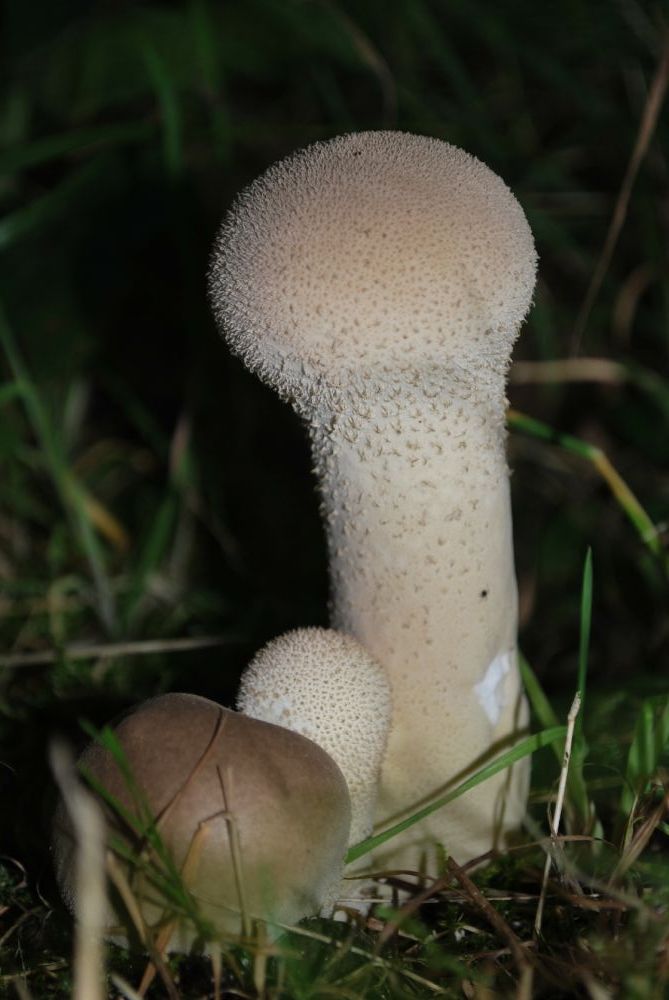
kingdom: Fungi
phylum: Basidiomycota
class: Agaricomycetes
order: Agaricales
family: Lycoperdaceae
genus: Lycoperdon
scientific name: Lycoperdon excipuliforme
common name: højstokket støvbold
